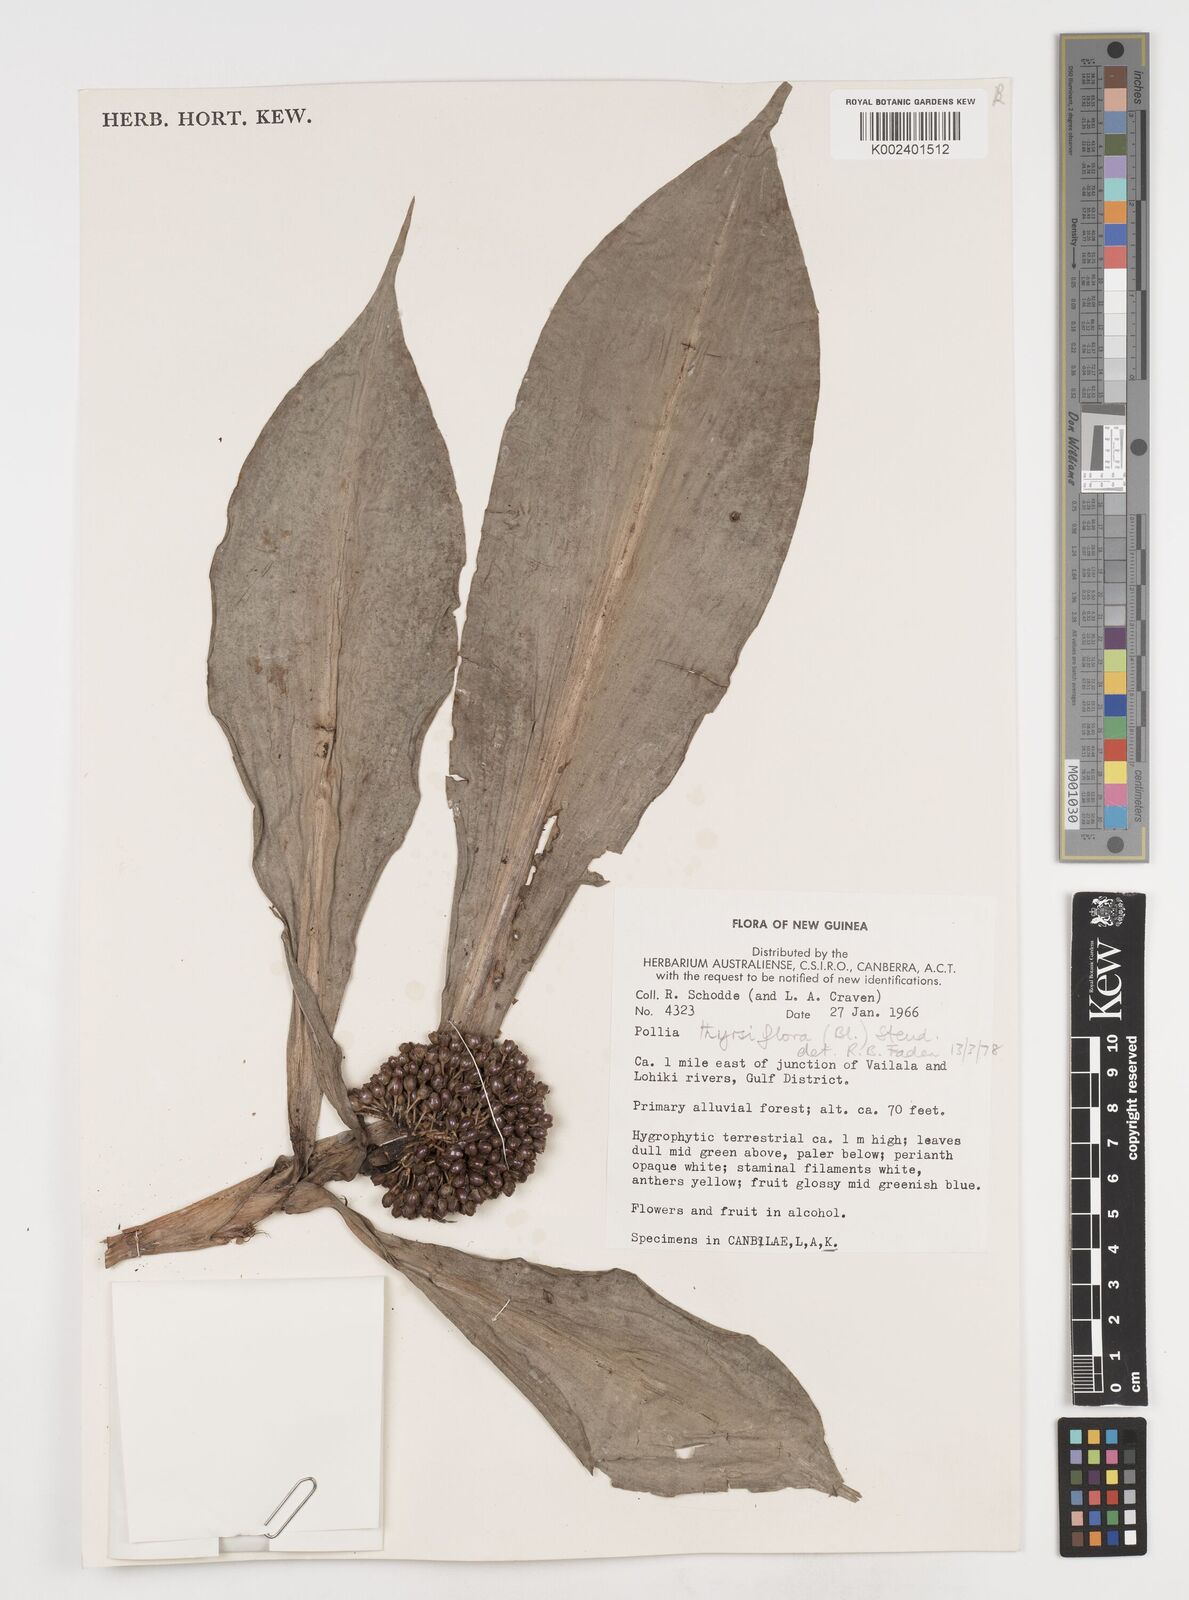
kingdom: Plantae
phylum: Tracheophyta
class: Liliopsida
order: Commelinales
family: Commelinaceae
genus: Pollia
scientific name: Pollia thyrsiflora
